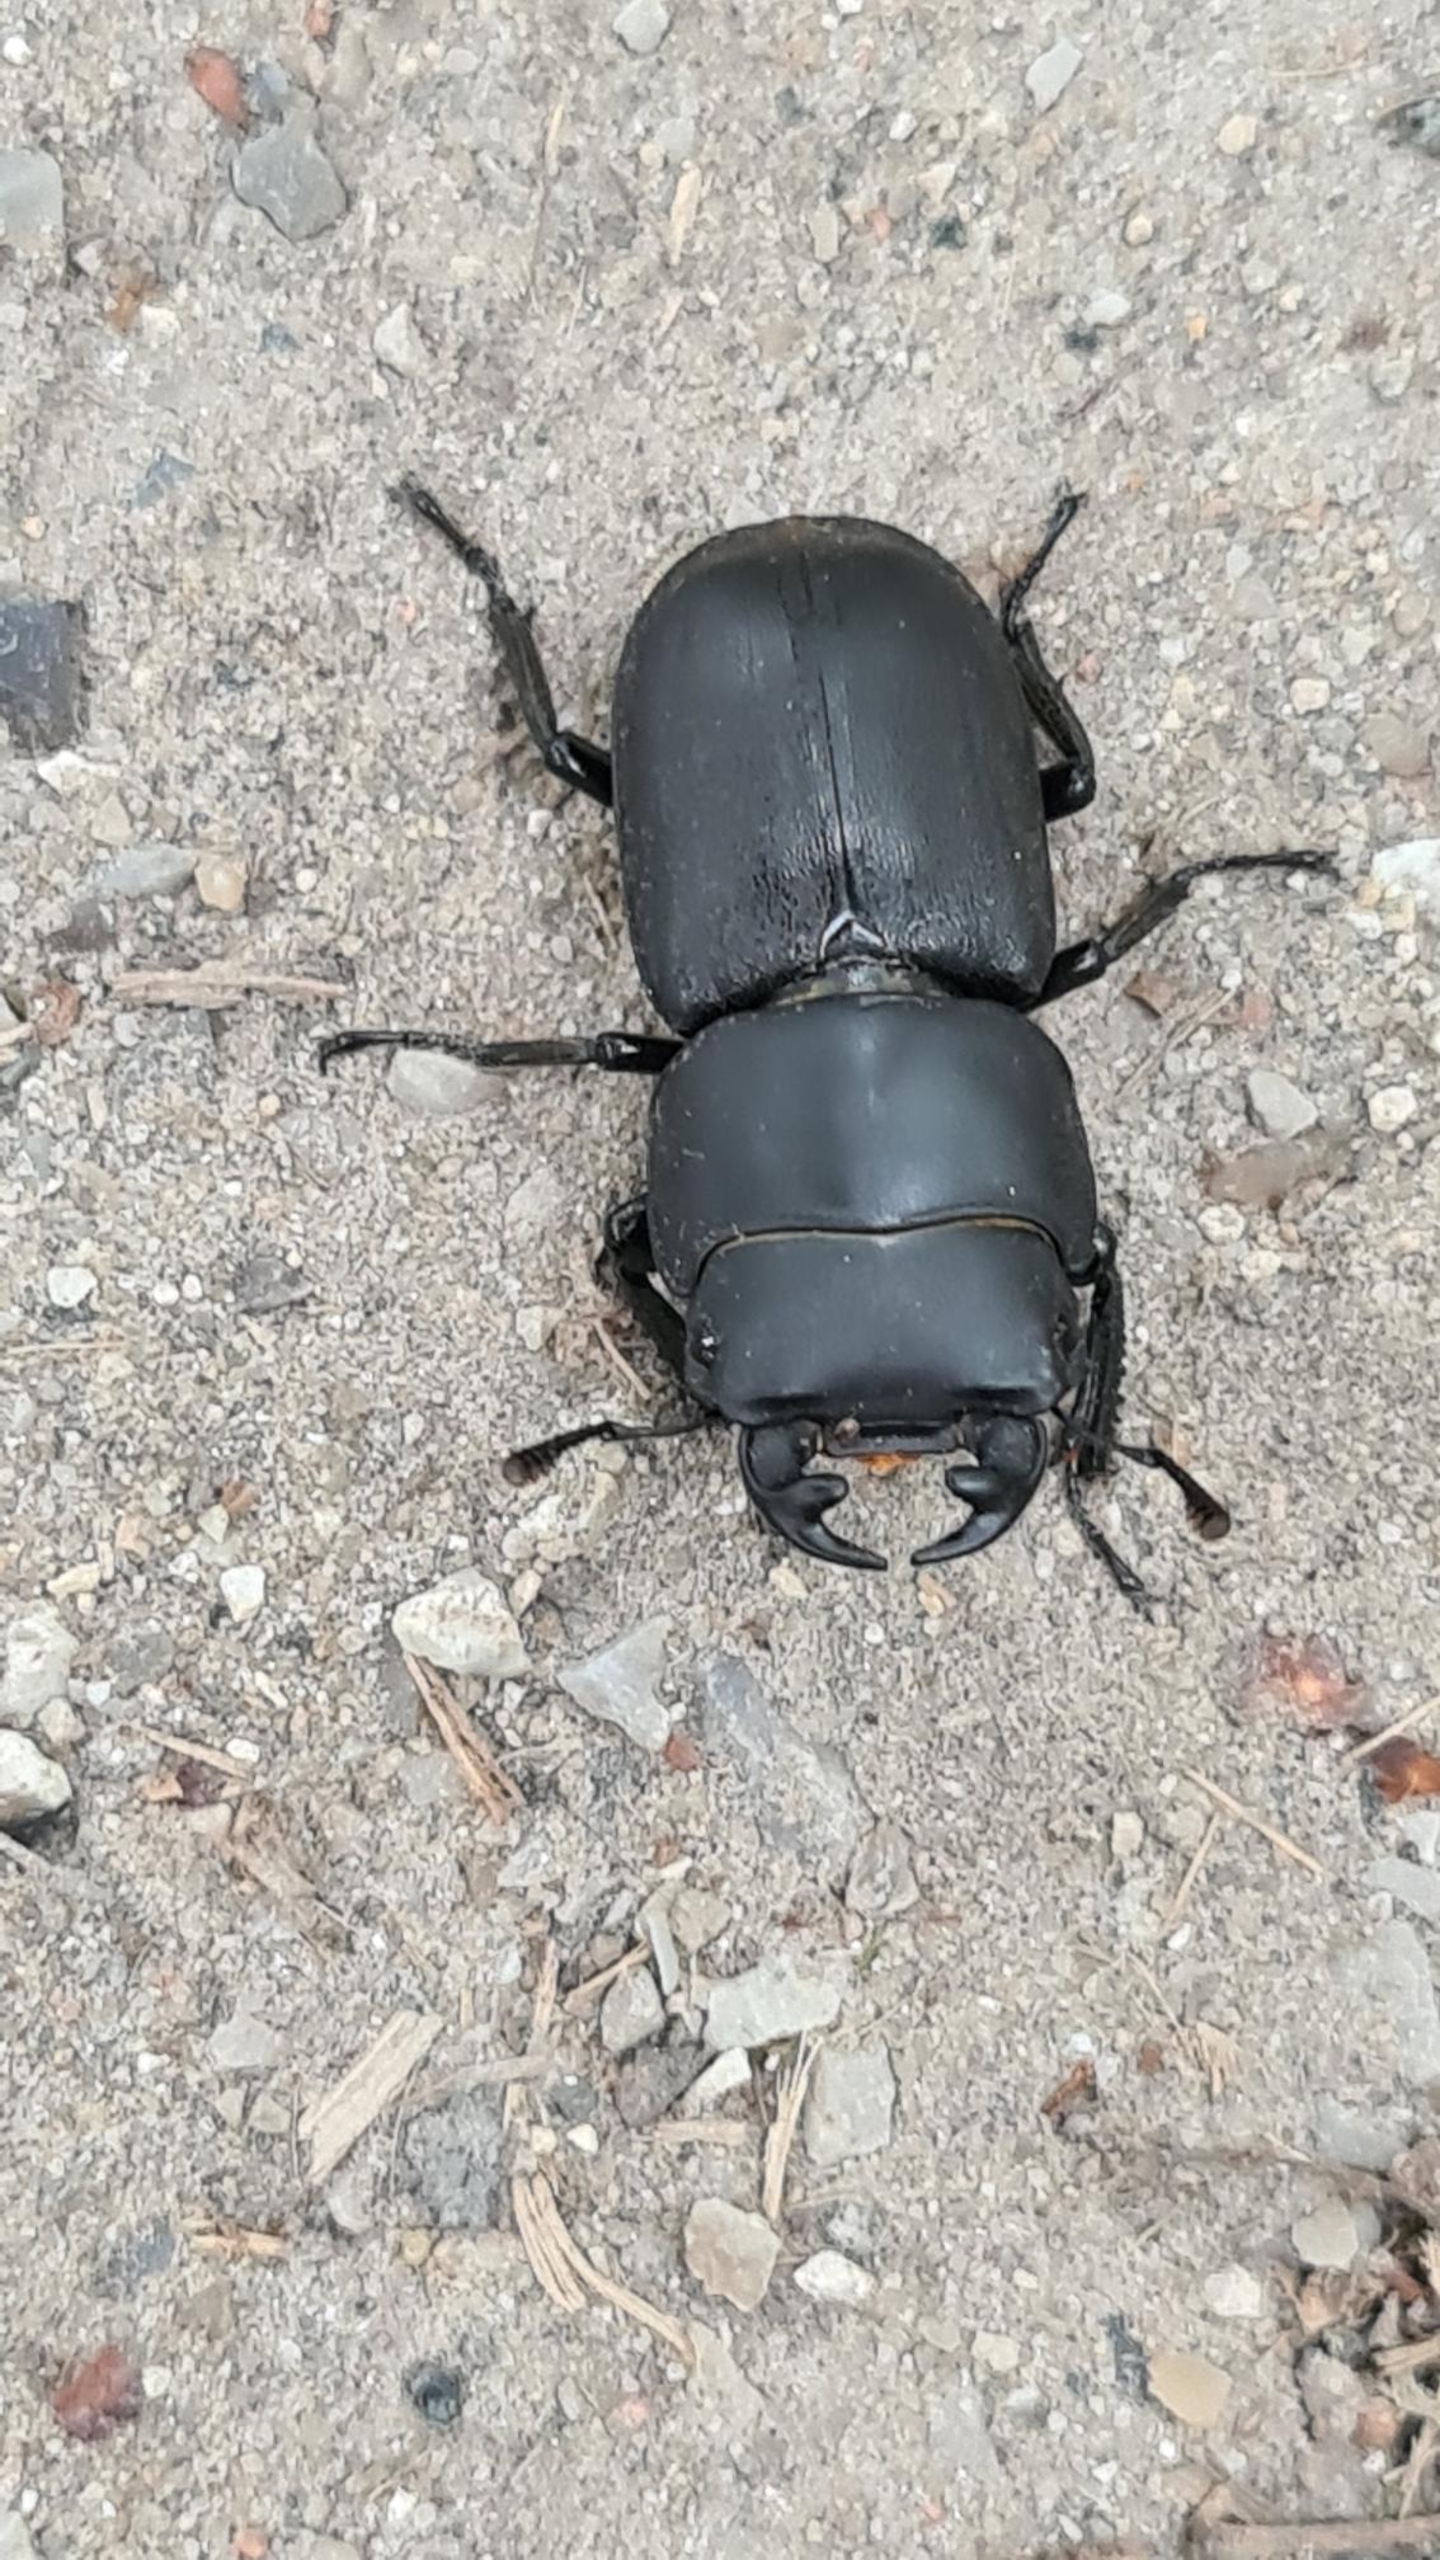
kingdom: Animalia
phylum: Arthropoda
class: Insecta
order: Coleoptera
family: Lucanidae
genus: Dorcus
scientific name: Dorcus parallelipipedus
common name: Bøghjort
